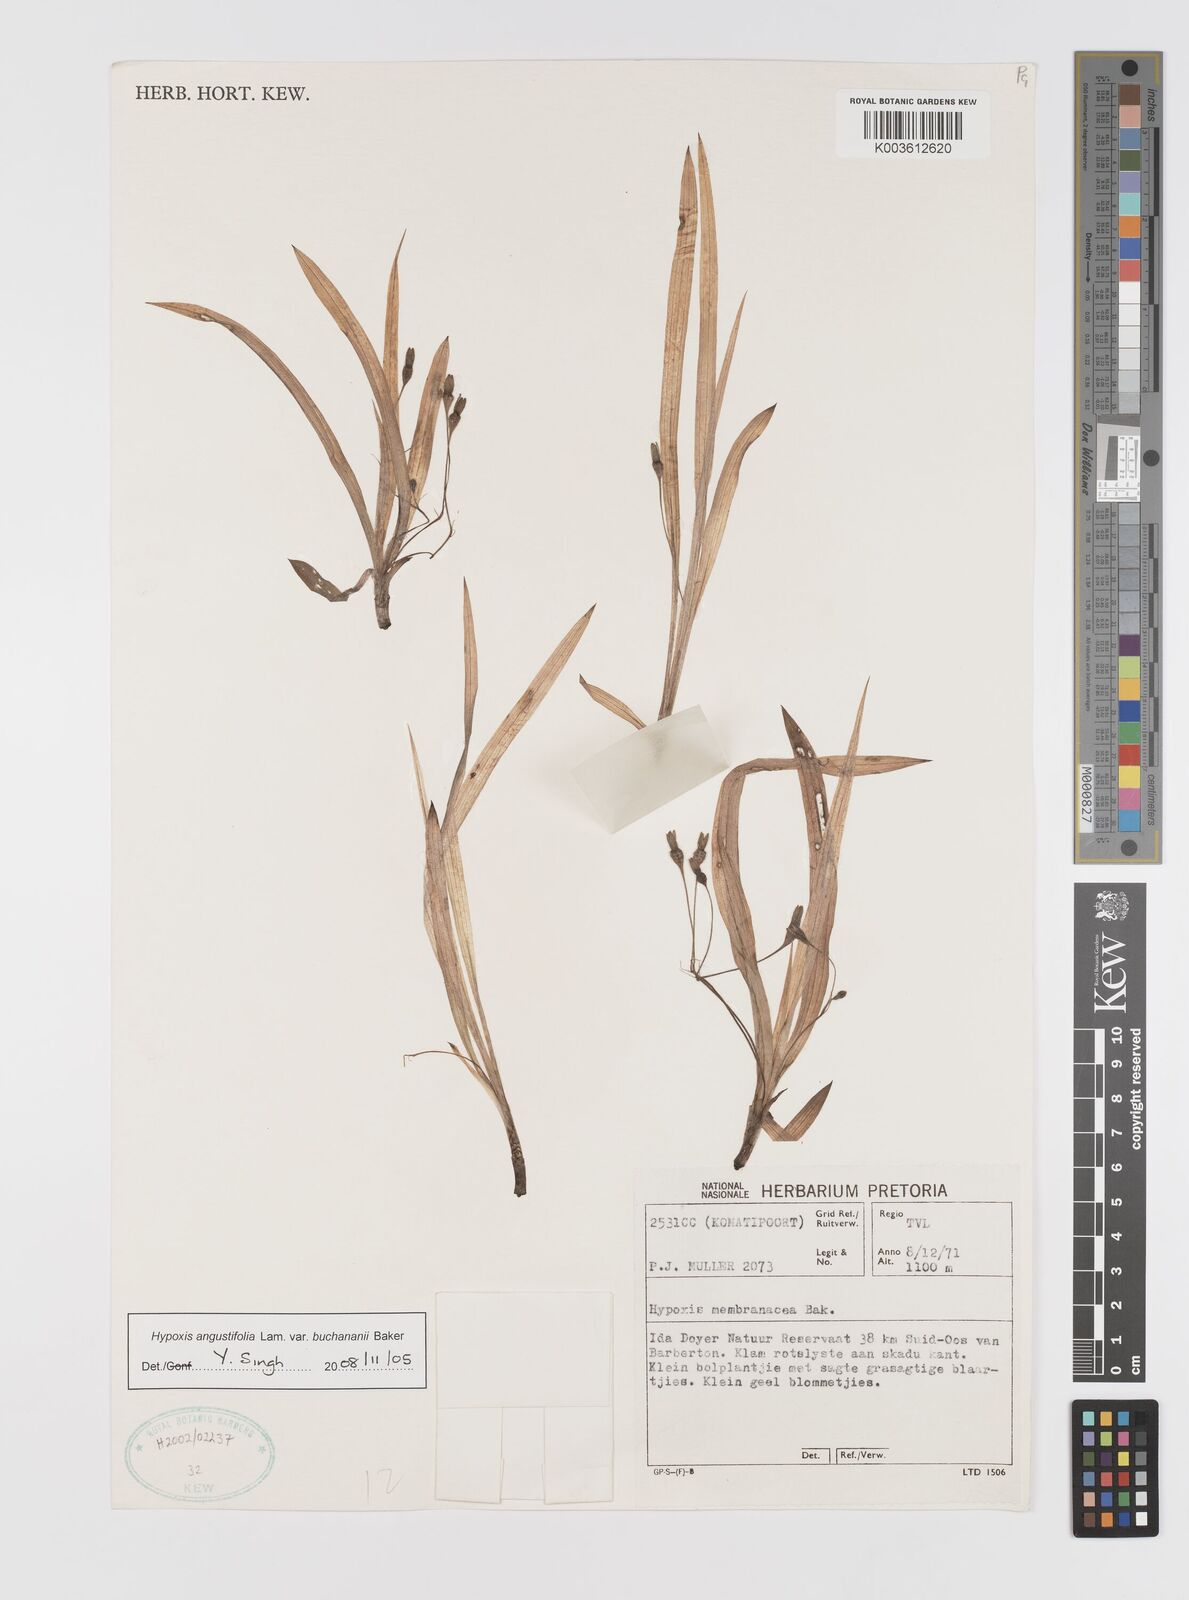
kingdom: Plantae
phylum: Tracheophyta
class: Liliopsida
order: Asparagales
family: Hypoxidaceae
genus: Hypoxis
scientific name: Hypoxis angustifolia
